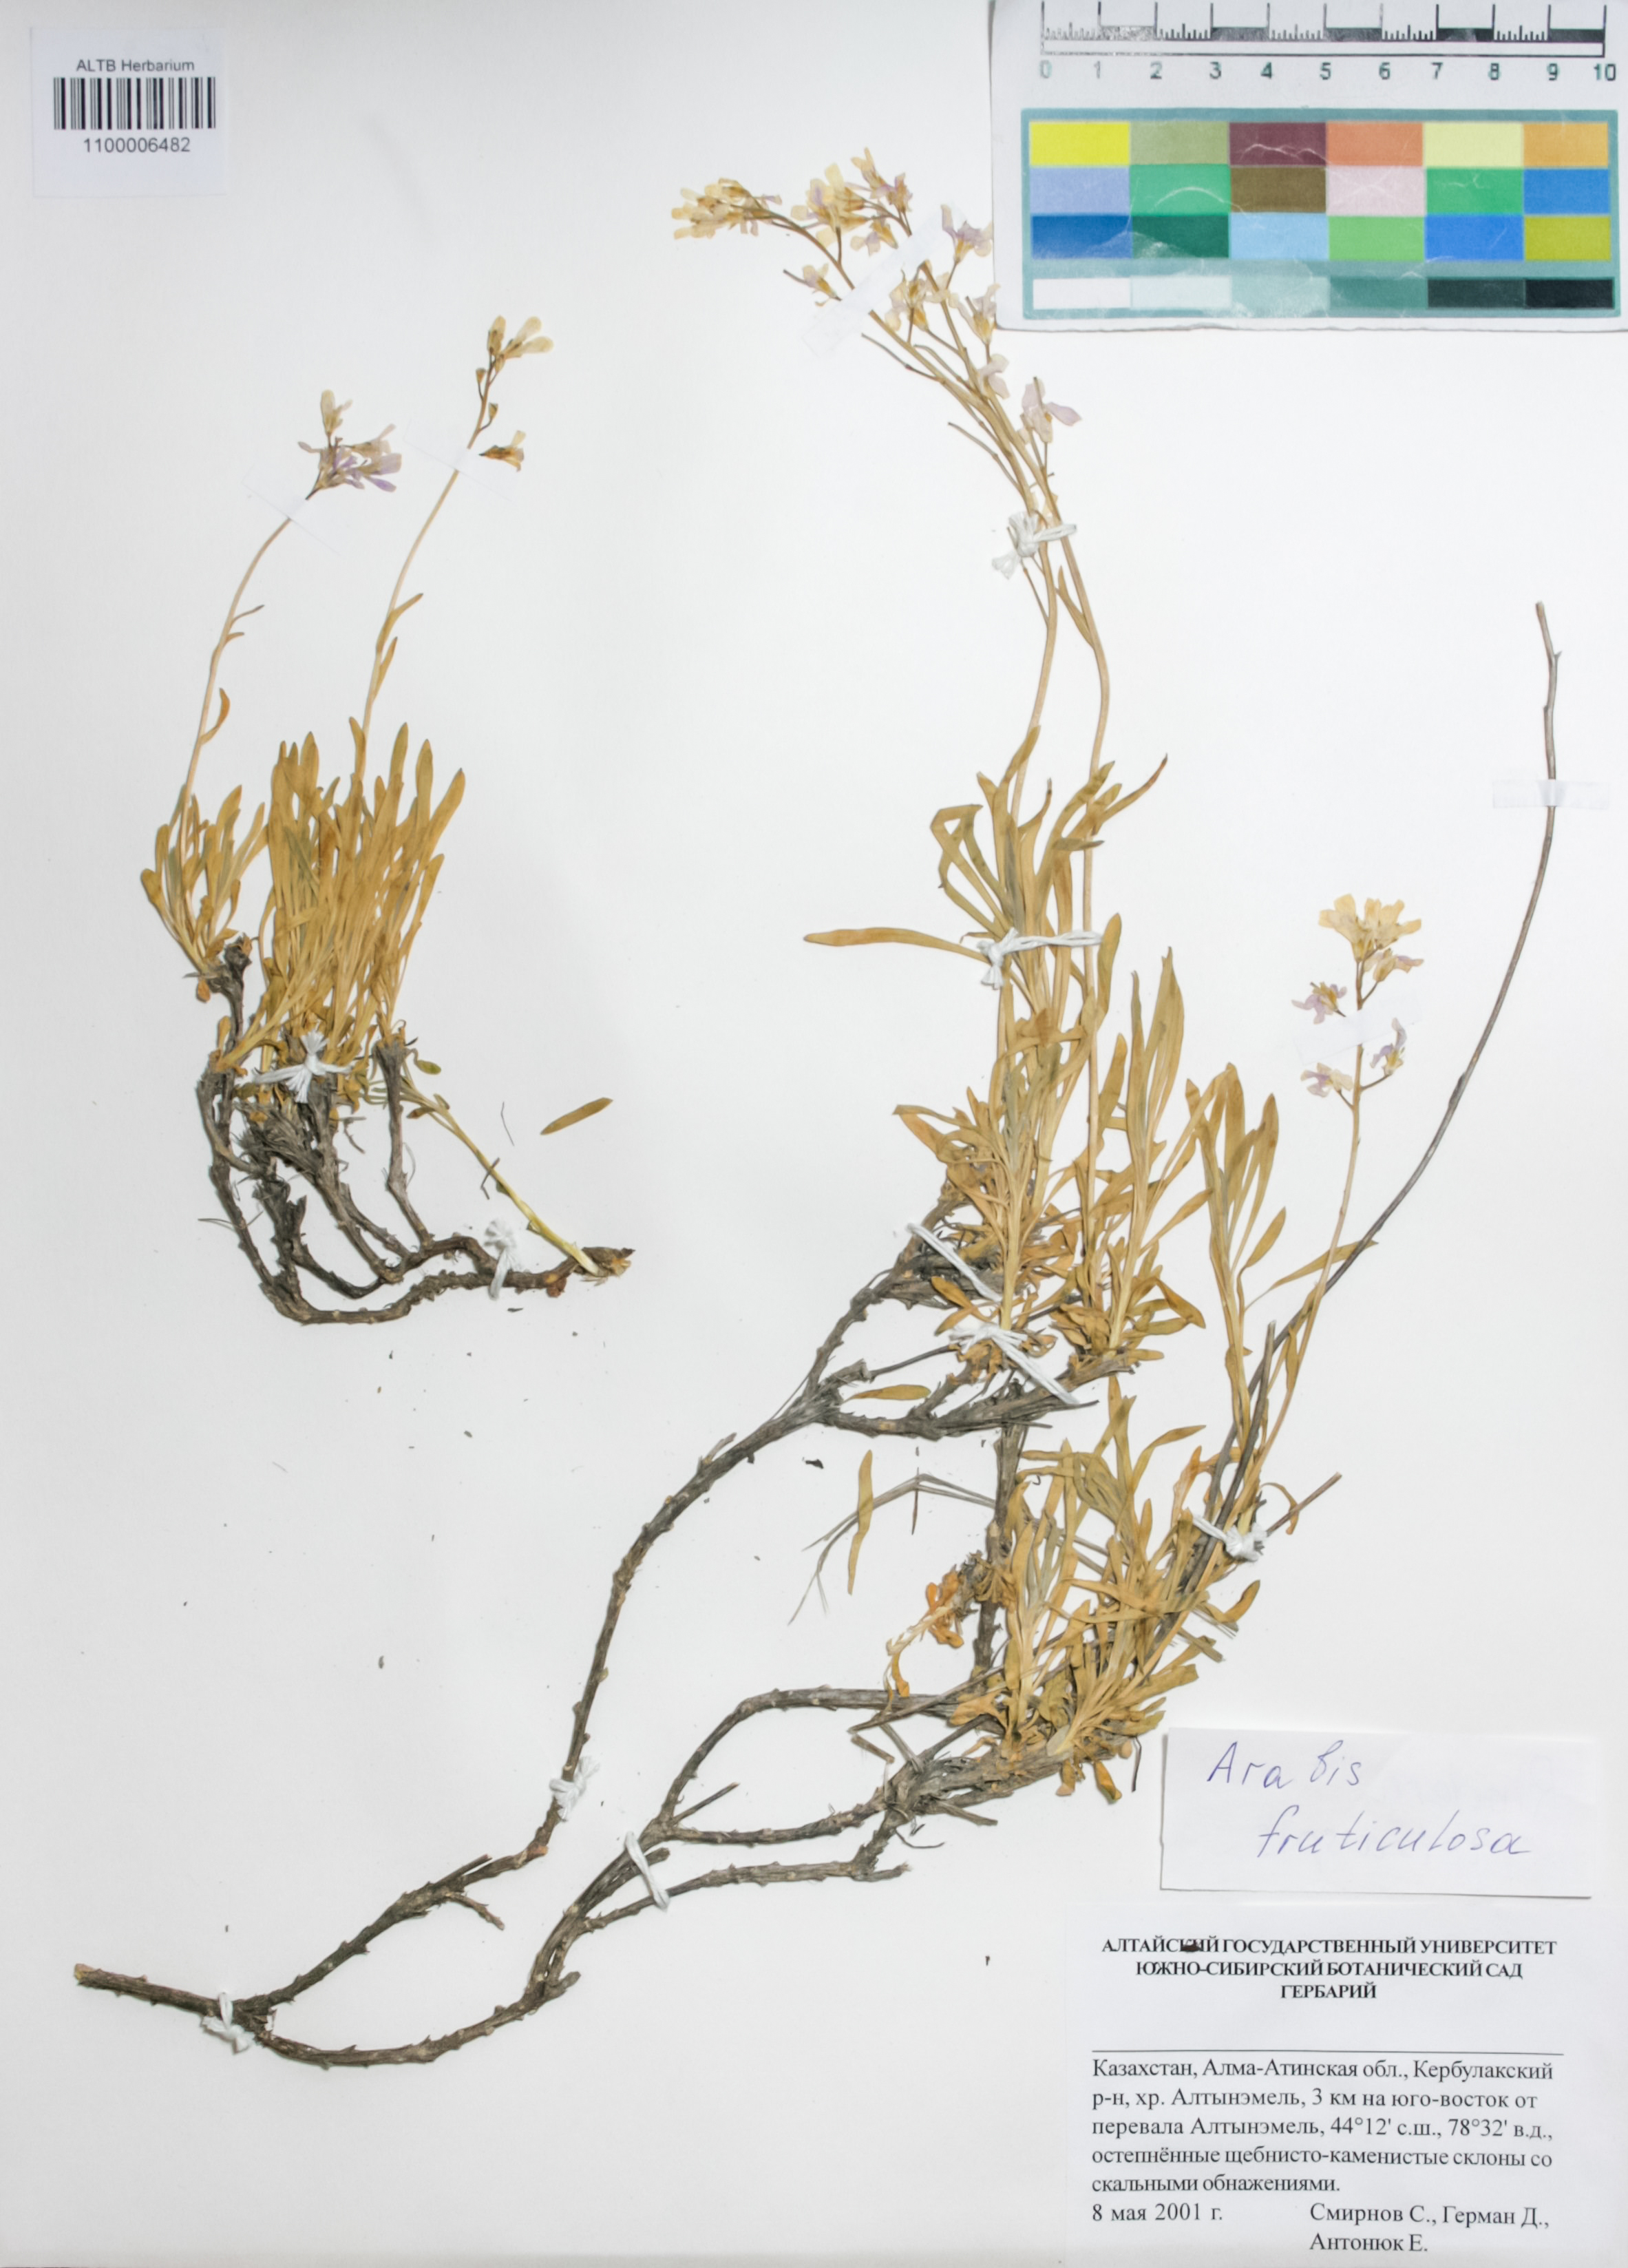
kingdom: Plantae
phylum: Tracheophyta
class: Magnoliopsida
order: Brassicales
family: Brassicaceae
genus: Dendroarabis
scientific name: Dendroarabis fruticulosa
